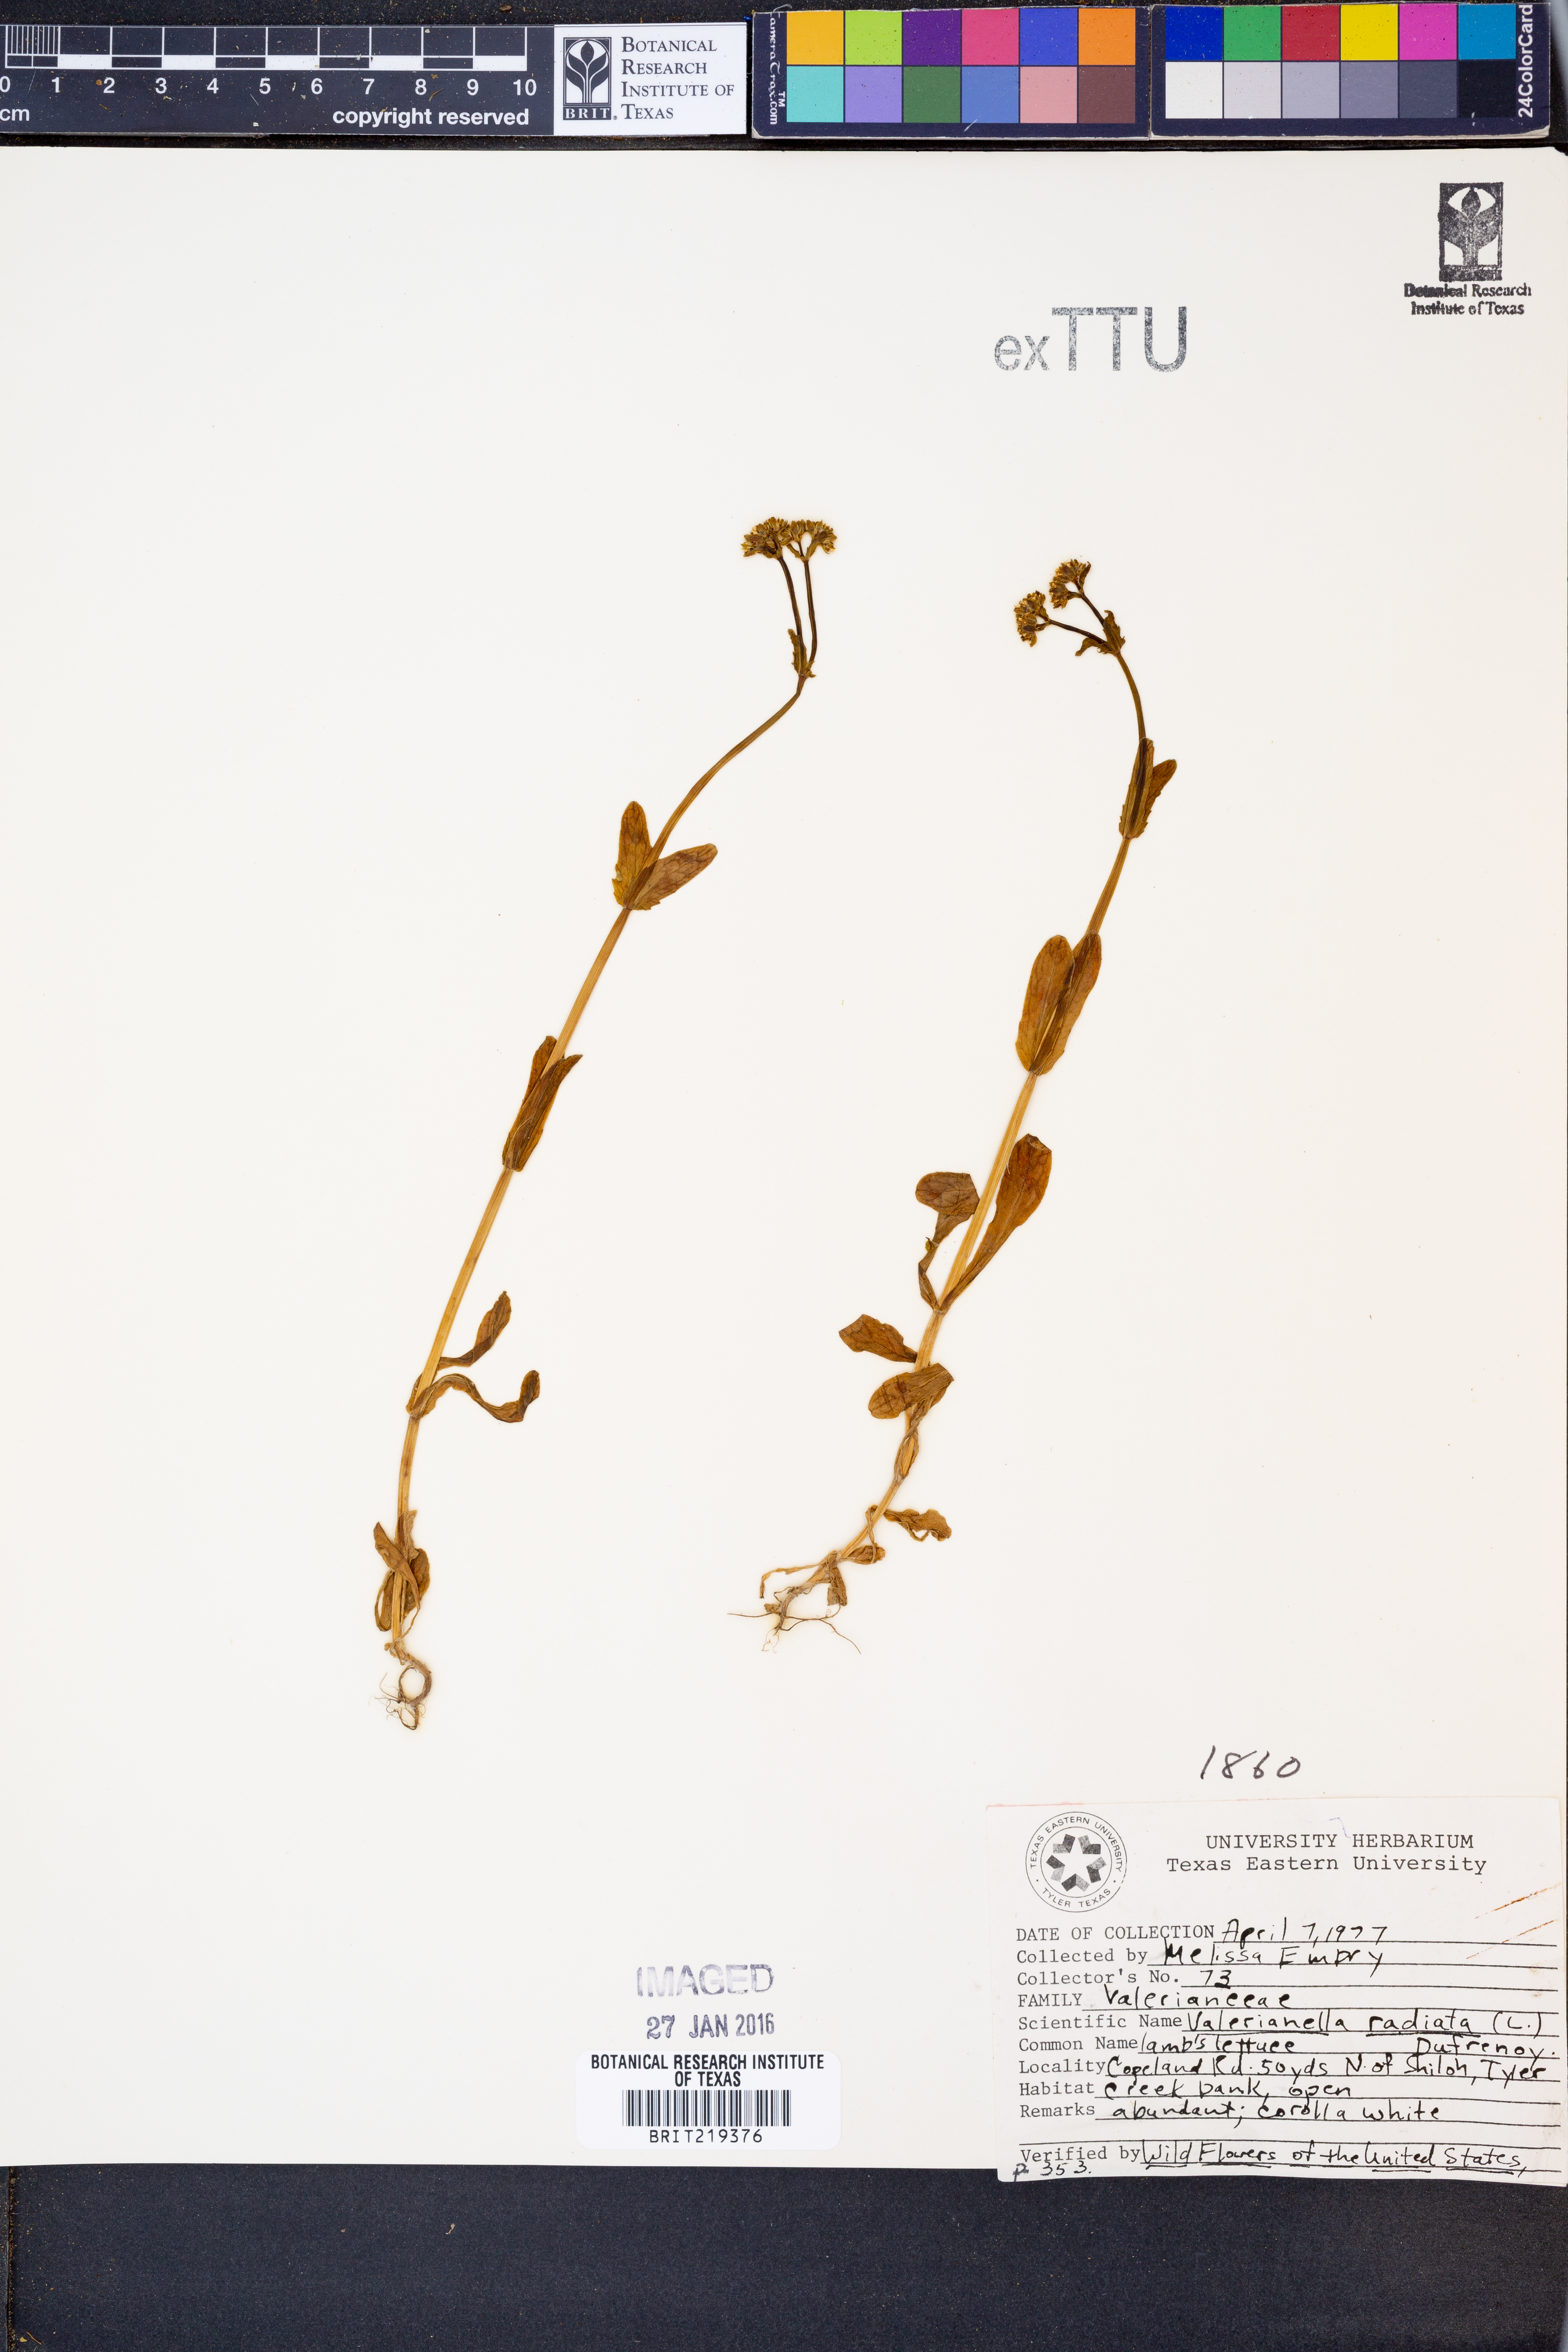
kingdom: Plantae
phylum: Tracheophyta
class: Magnoliopsida
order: Dipsacales
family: Caprifoliaceae
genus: Valerianella
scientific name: Valerianella radiata
